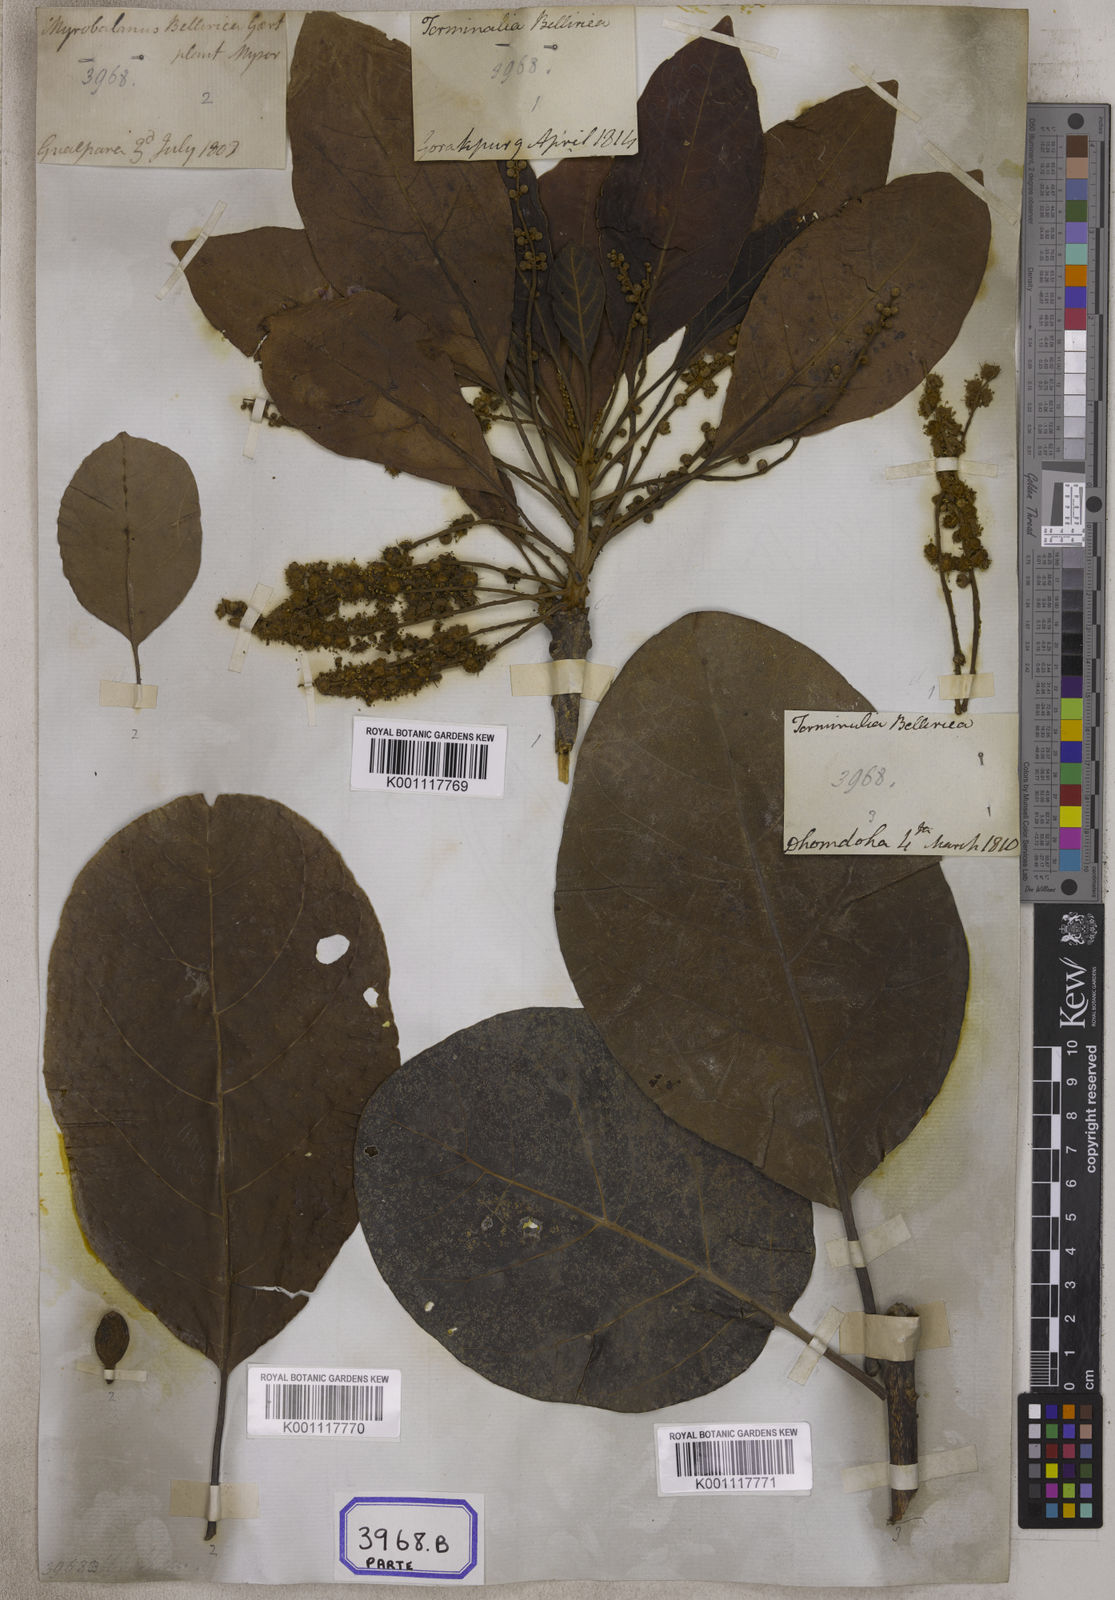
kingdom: Plantae
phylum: Tracheophyta
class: Magnoliopsida
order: Myrtales
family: Combretaceae
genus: Terminalia
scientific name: Terminalia bellirica
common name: Beleric myrobalan
